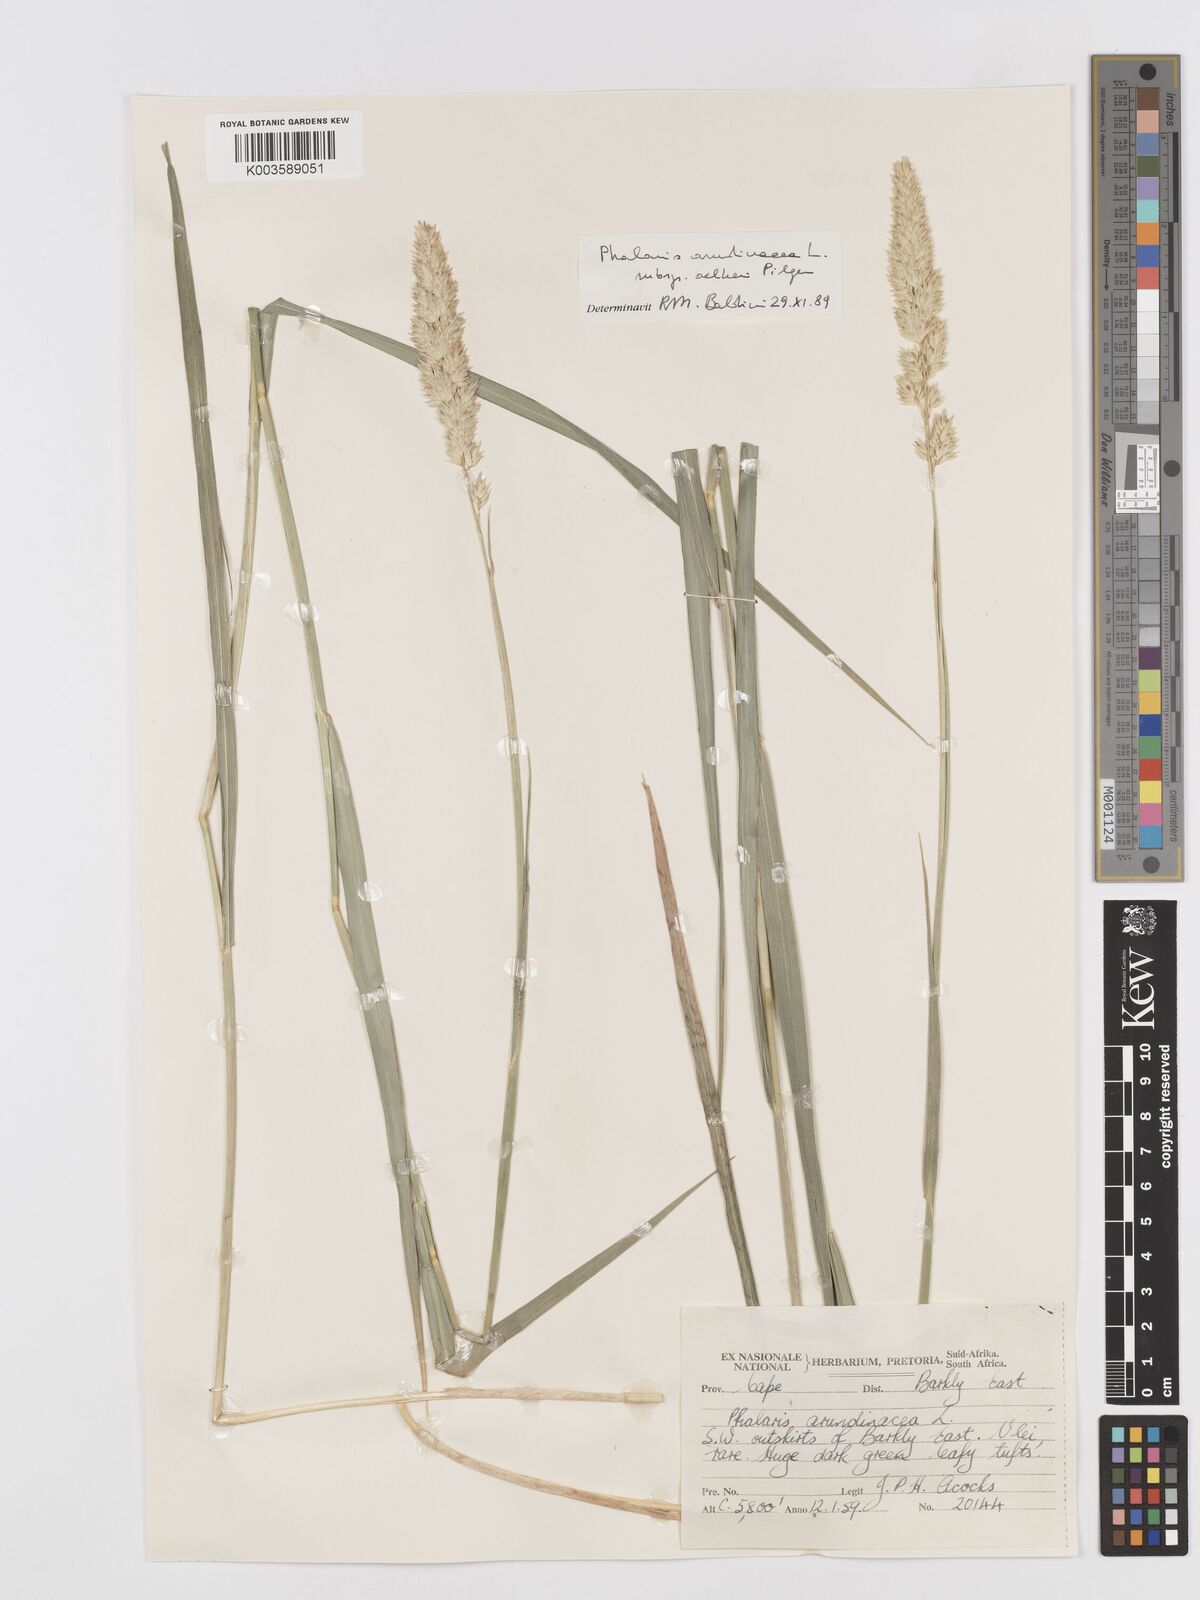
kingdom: Plantae
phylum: Tracheophyta
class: Liliopsida
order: Poales
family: Poaceae
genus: Phalaris
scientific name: Phalaris arundinacea
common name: Reed canary-grass
